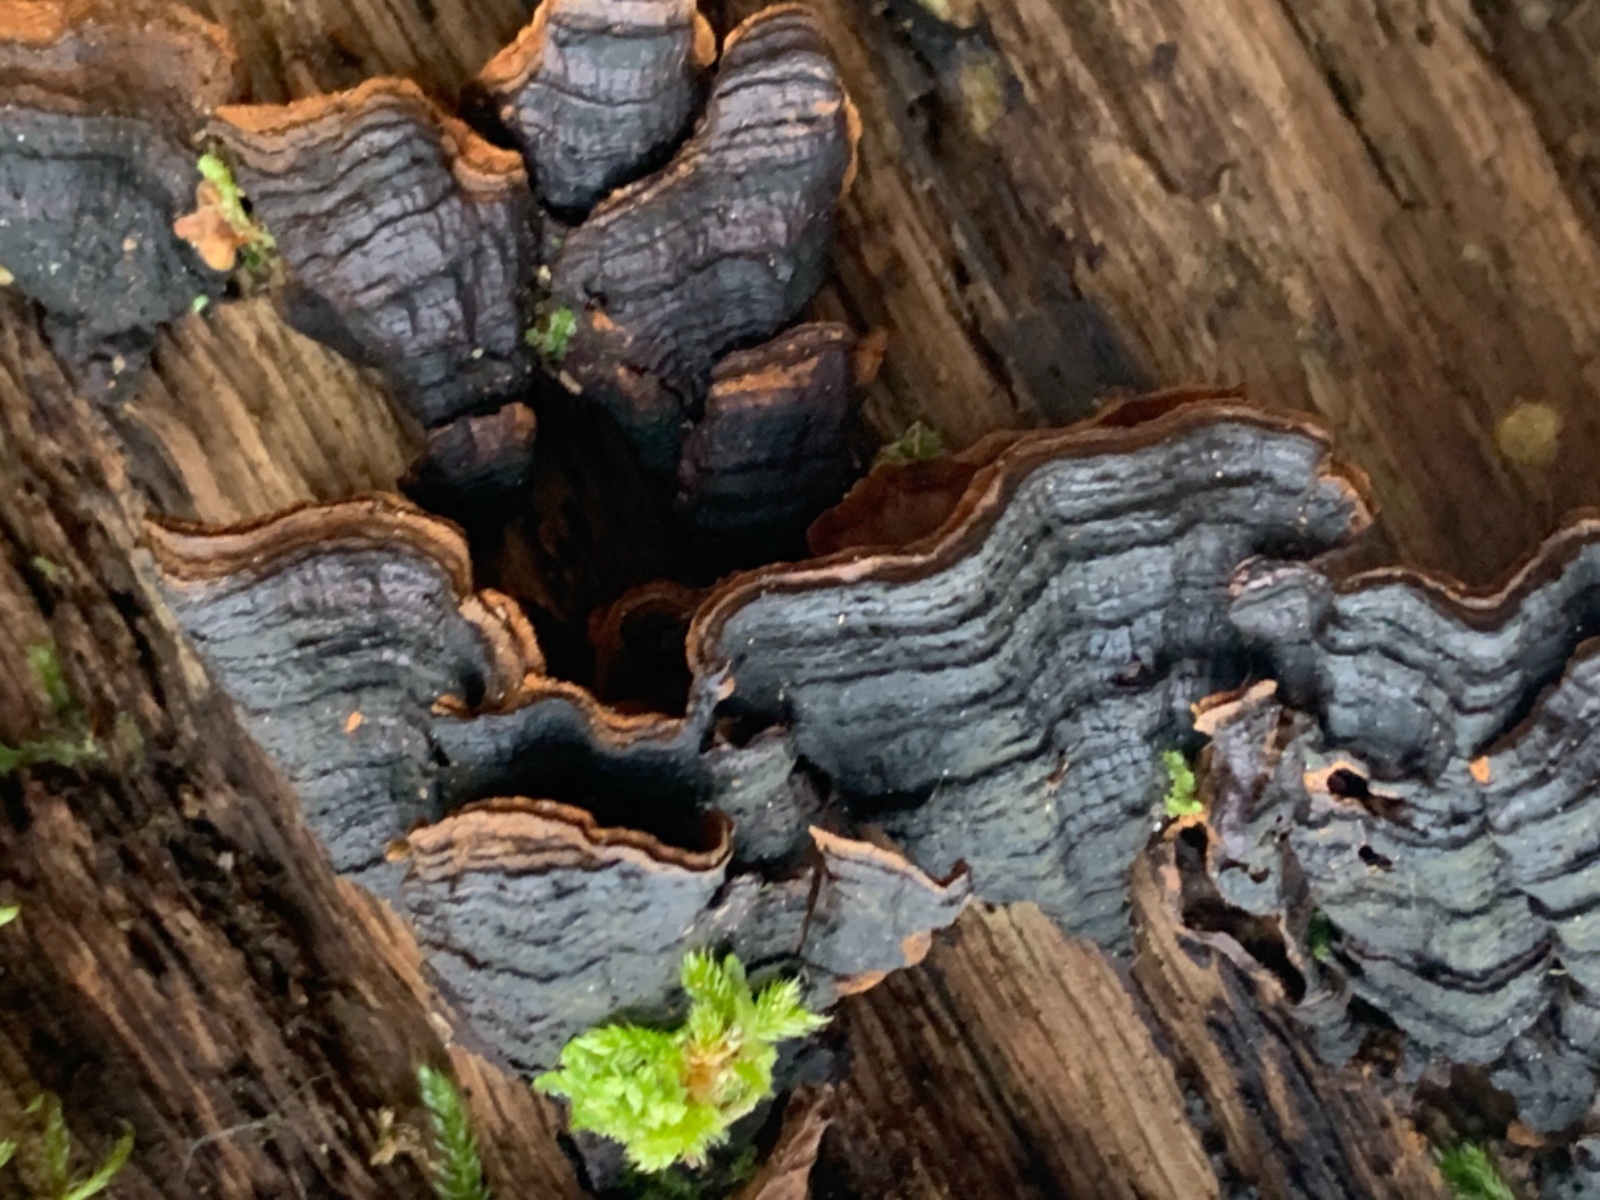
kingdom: Fungi
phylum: Basidiomycota
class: Agaricomycetes
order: Hymenochaetales
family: Hymenochaetaceae
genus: Hymenochaete
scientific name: Hymenochaete rubiginosa
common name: stiv ruslædersvamp
